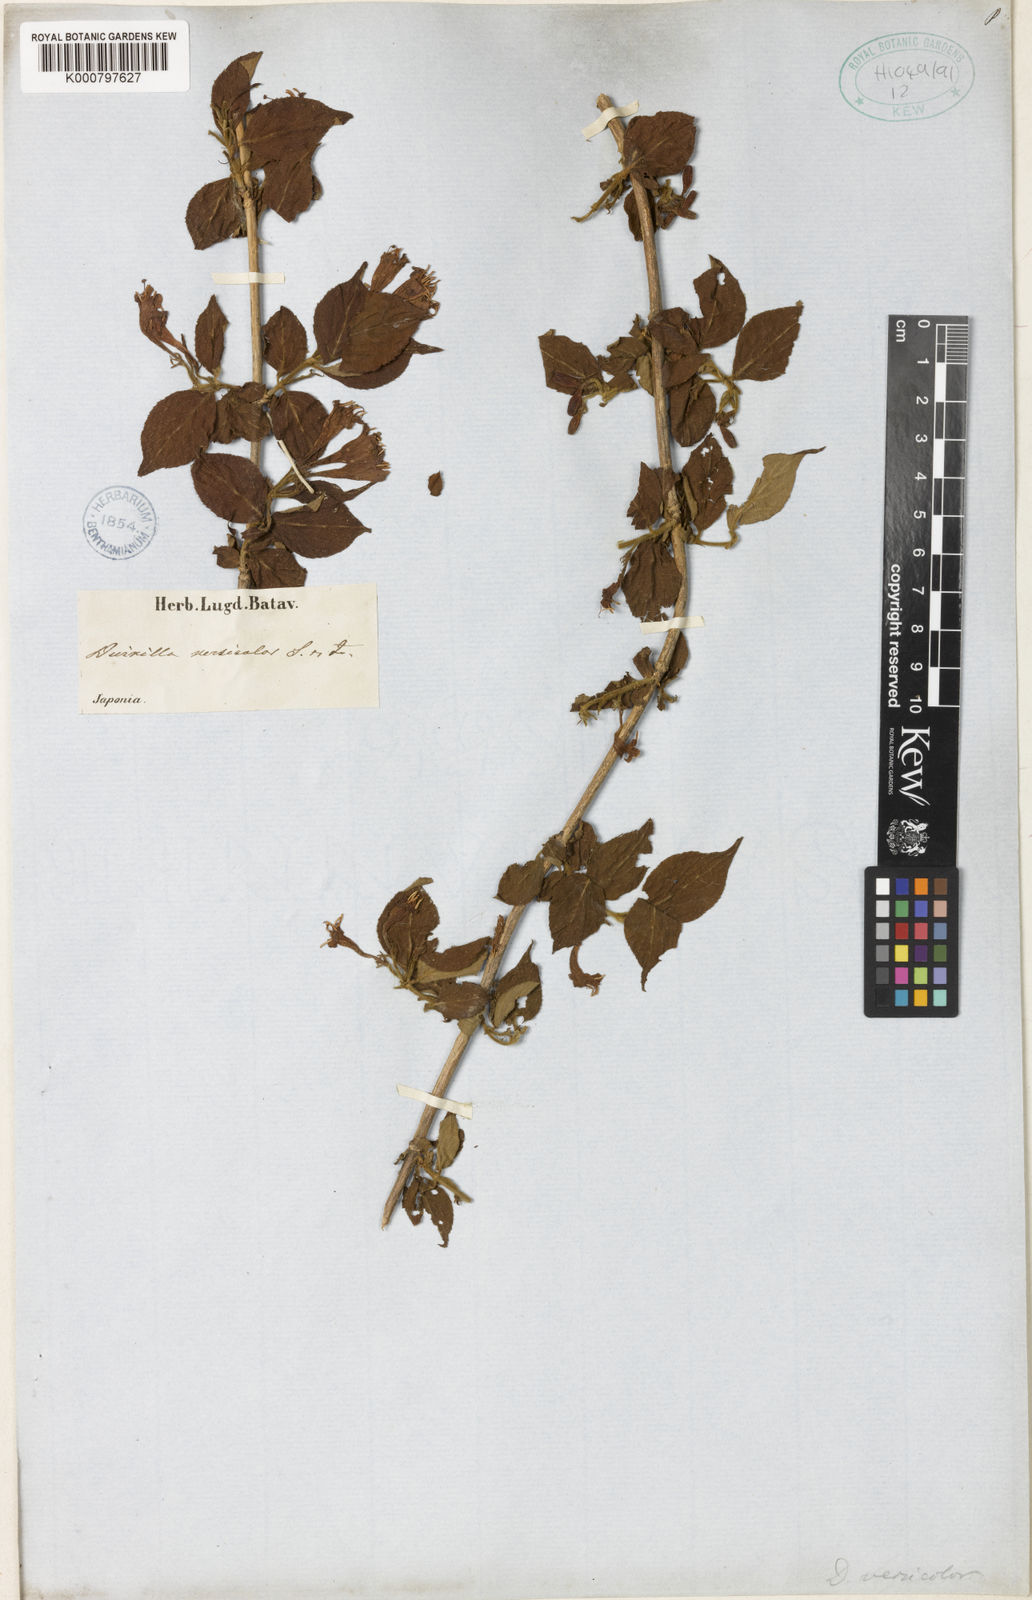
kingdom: Plantae
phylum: Tracheophyta
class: Magnoliopsida
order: Dipsacales
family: Caprifoliaceae
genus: Weigela
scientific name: Weigela japonica
